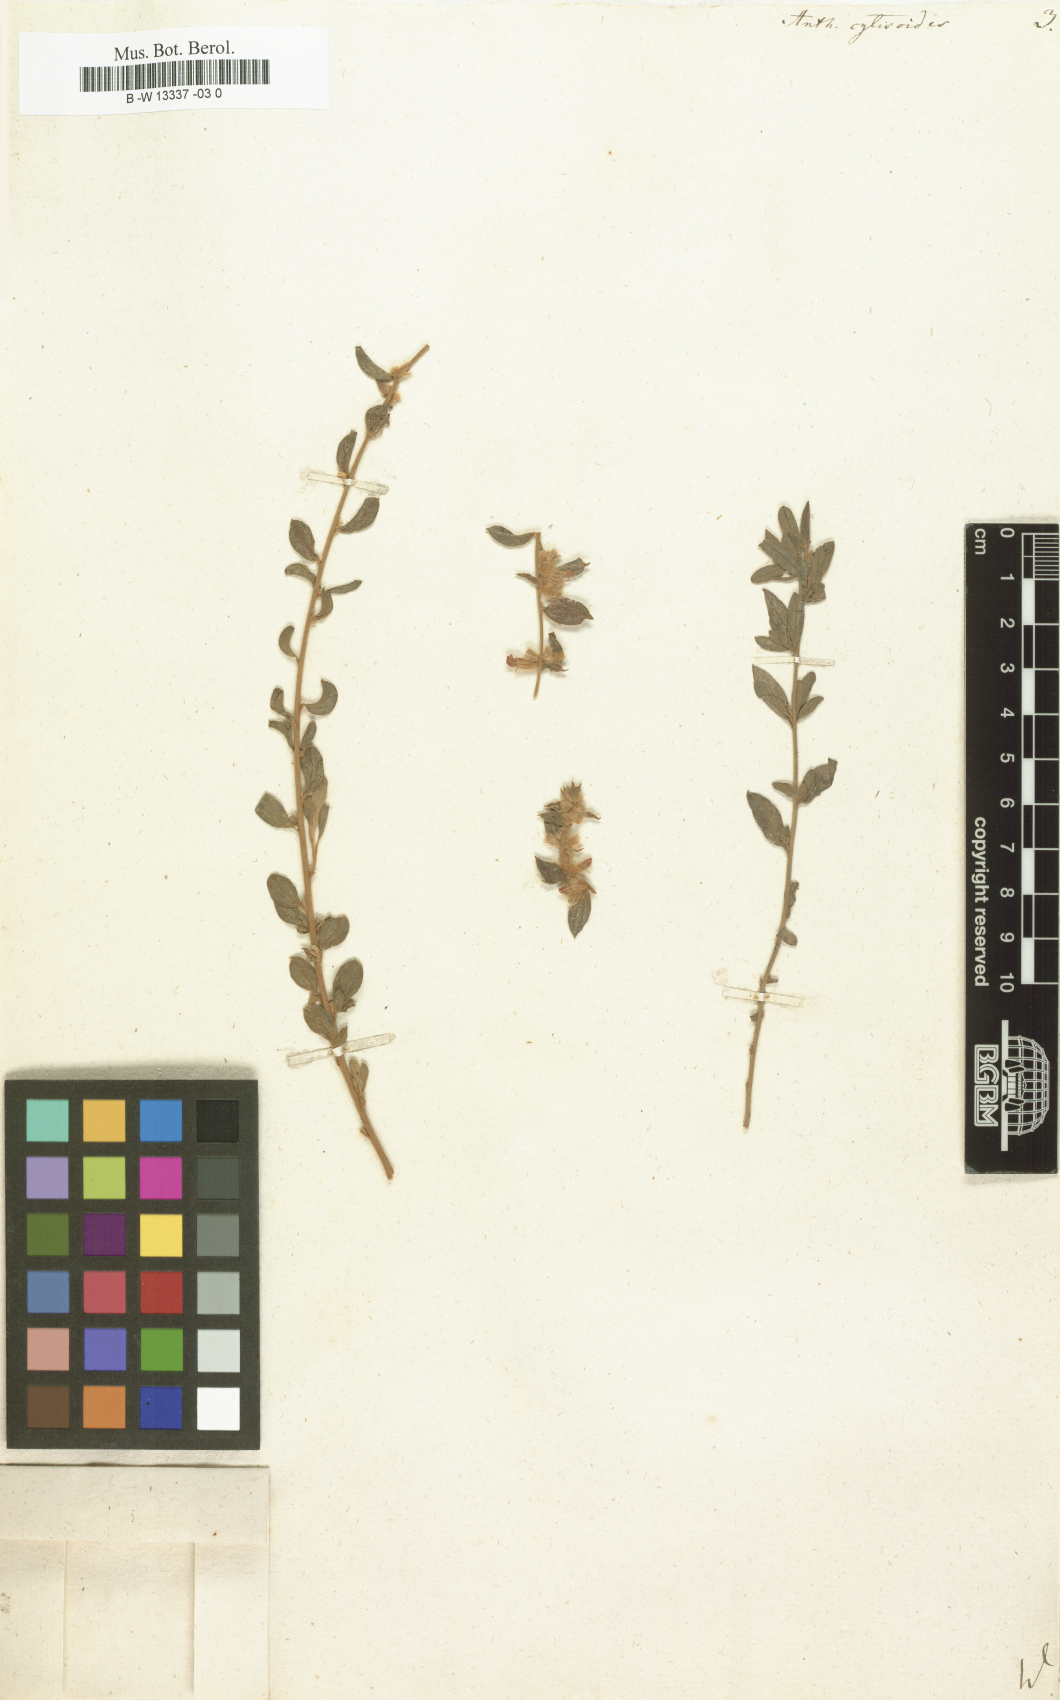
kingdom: Plantae
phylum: Tracheophyta
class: Magnoliopsida
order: Fabales
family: Fabaceae
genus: Anthyllis
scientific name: Anthyllis cytisoides
